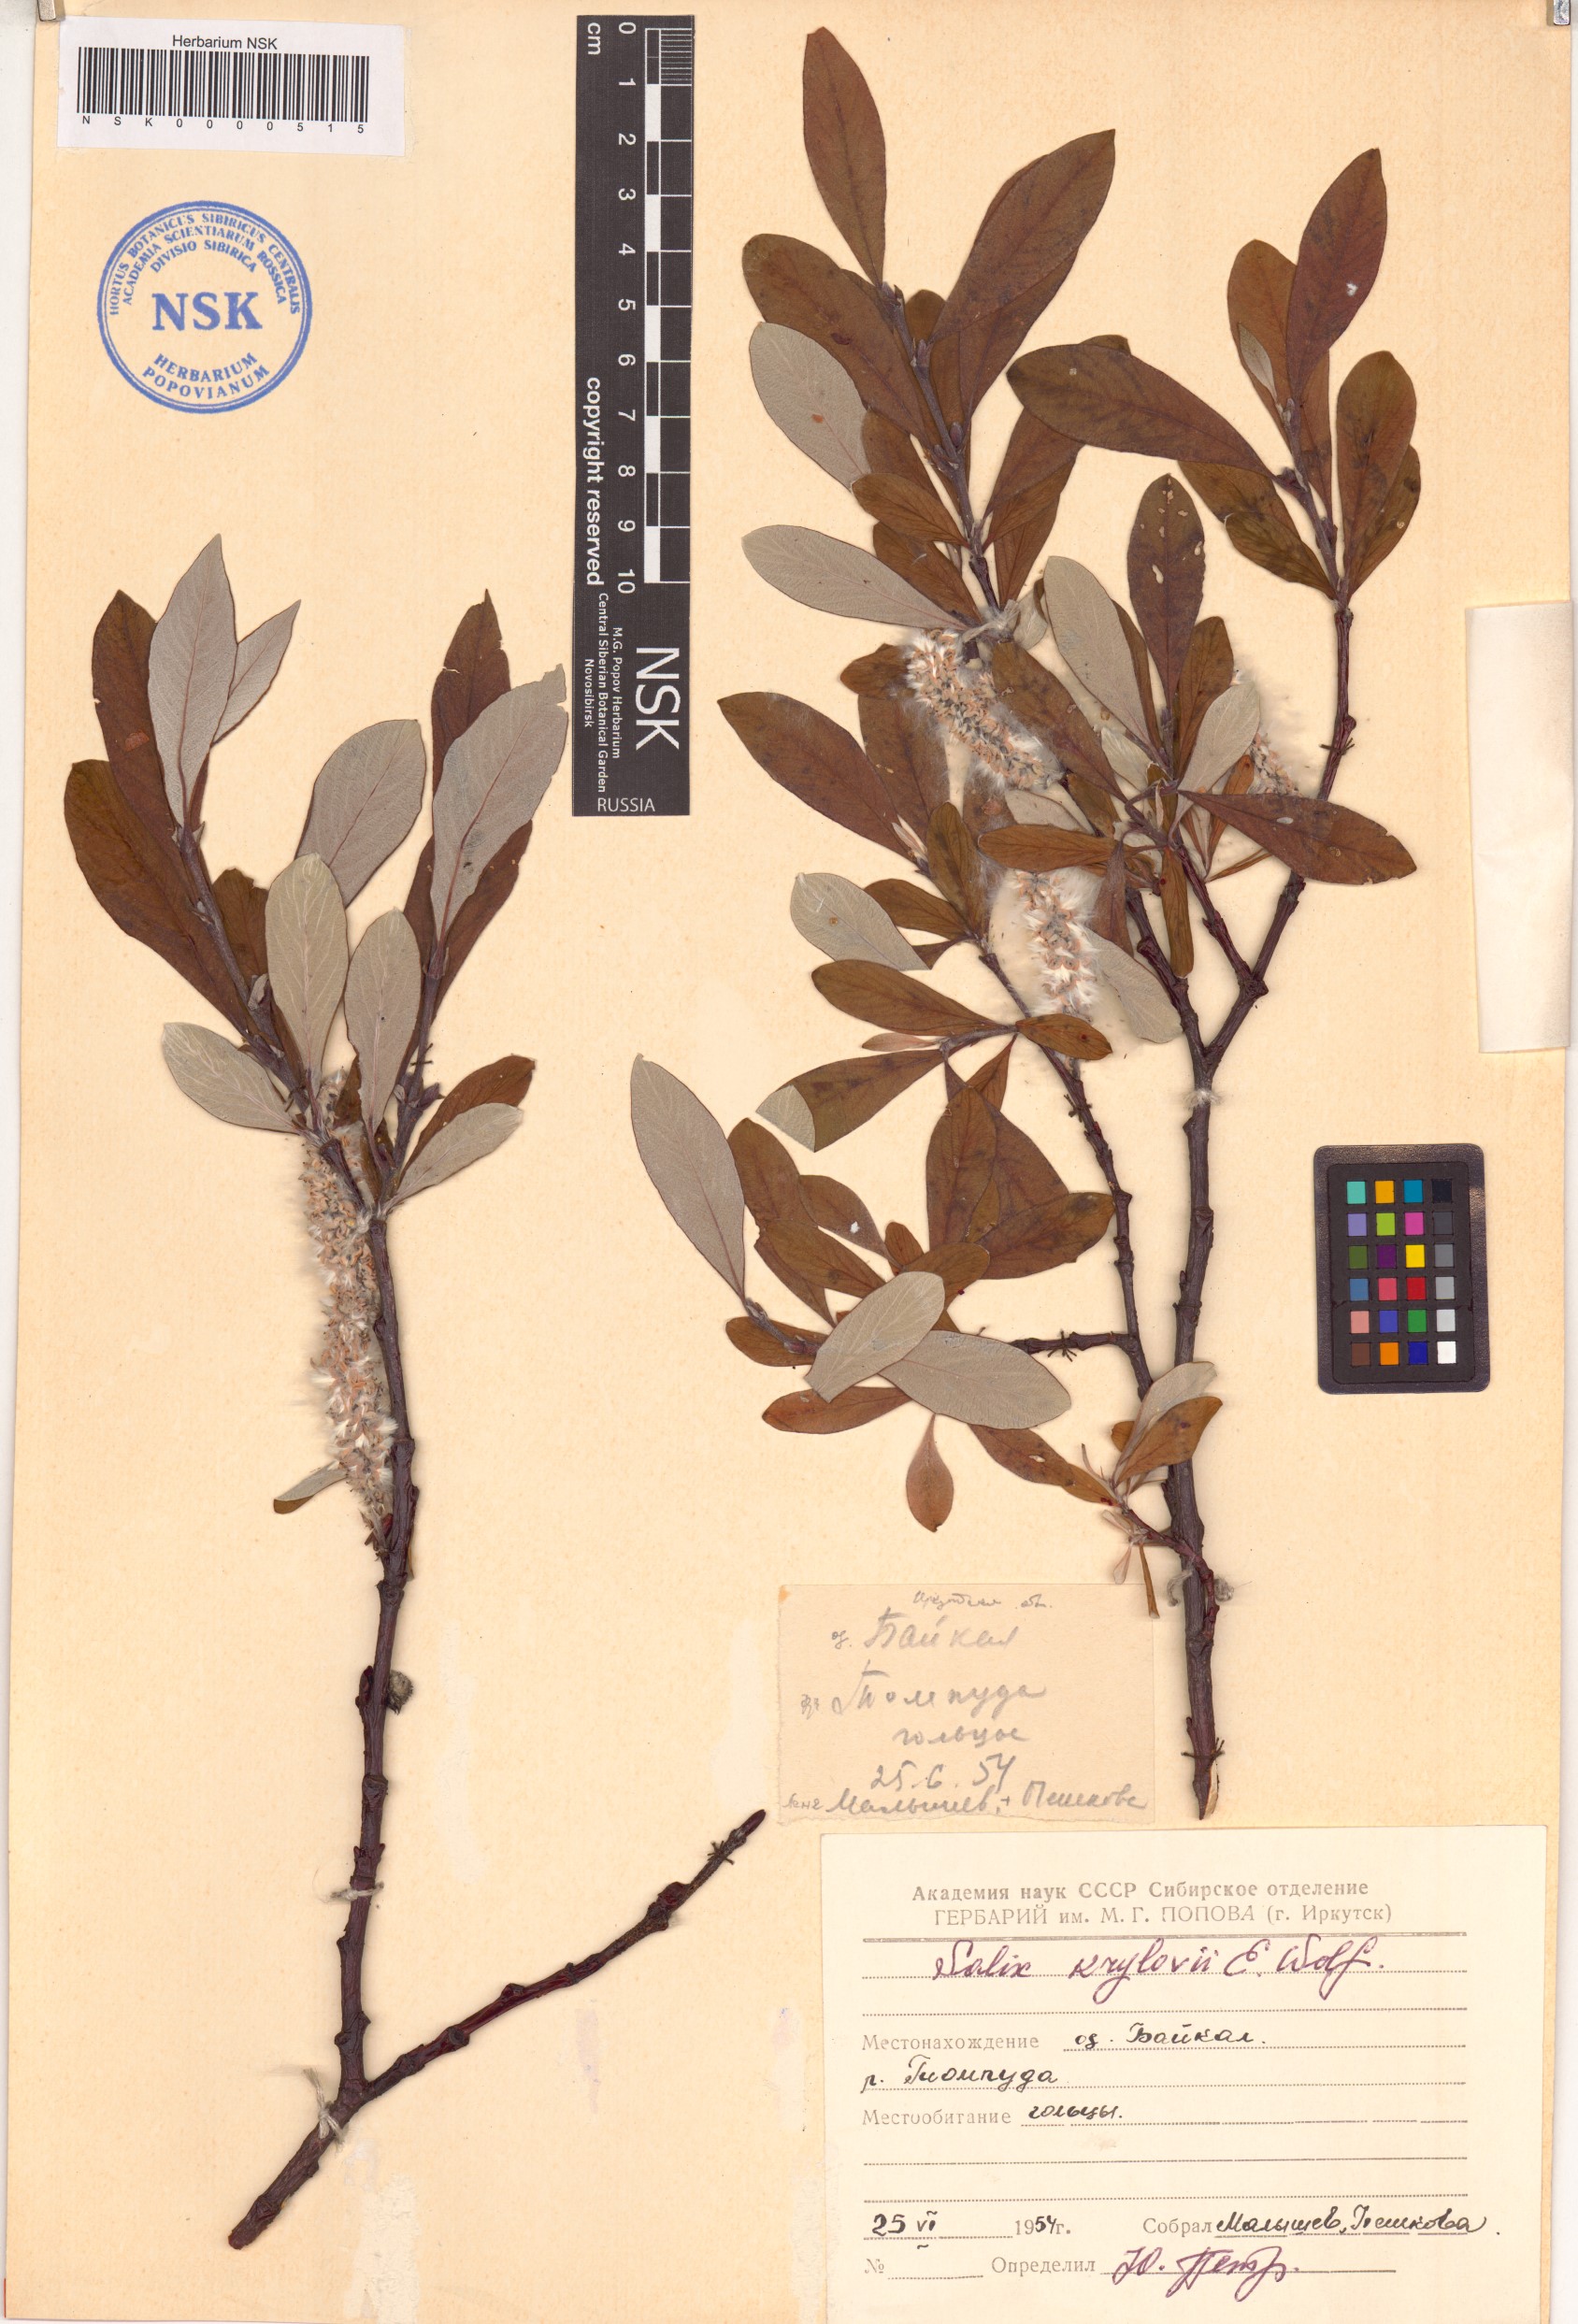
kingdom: Plantae
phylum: Tracheophyta
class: Magnoliopsida
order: Malpighiales
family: Salicaceae
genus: Salix
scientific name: Salix krylovii
